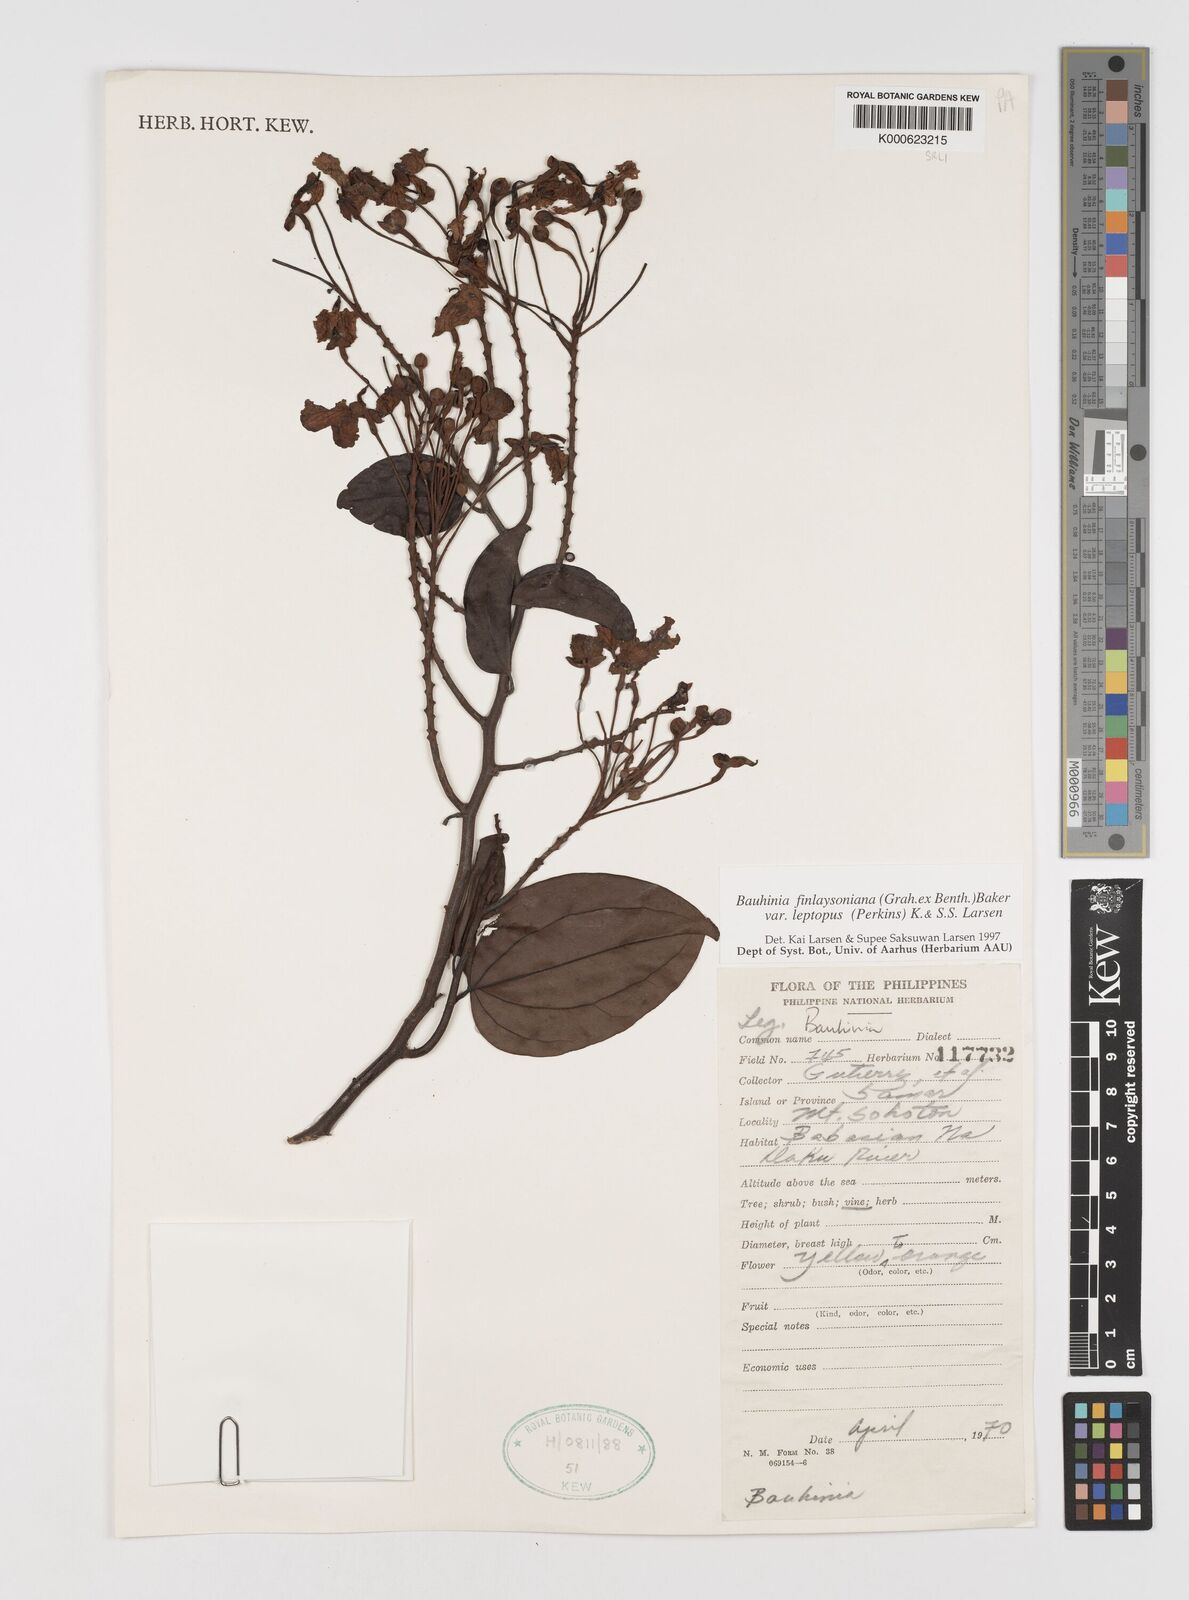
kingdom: Plantae
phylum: Tracheophyta
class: Magnoliopsida
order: Fabales
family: Fabaceae
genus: Phanera
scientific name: Phanera finlaysoniana
